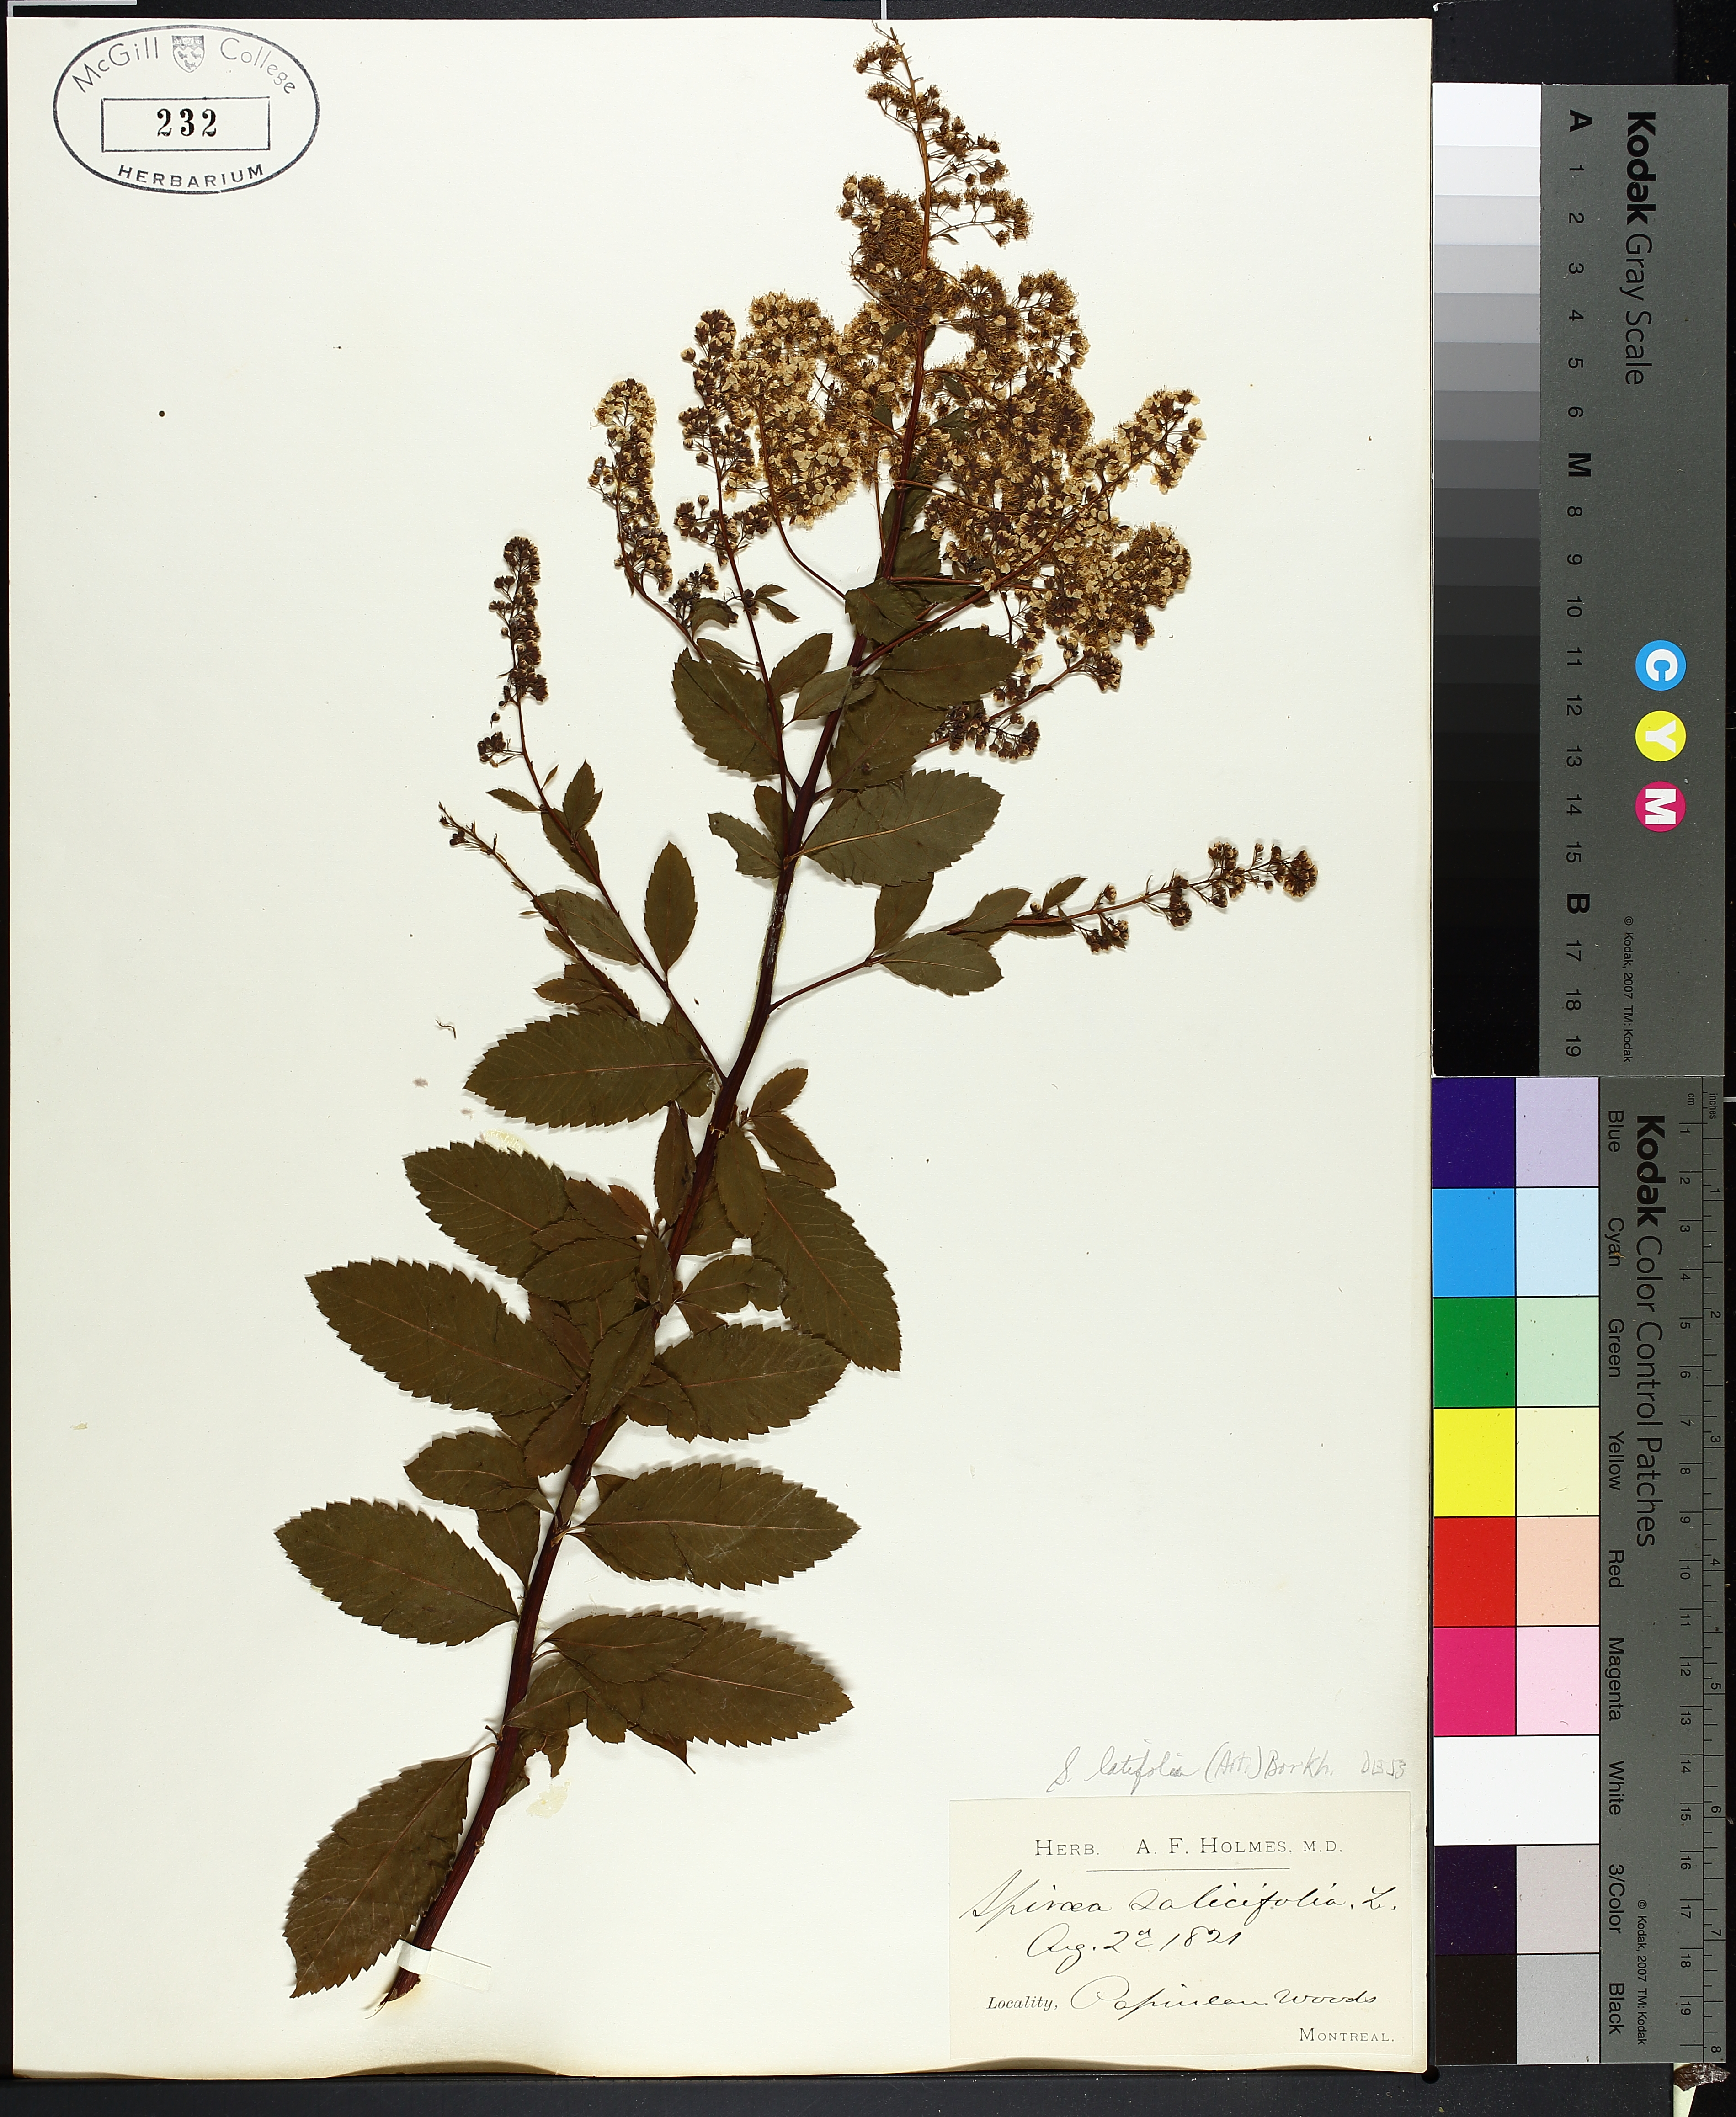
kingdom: Plantae
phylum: Tracheophyta
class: Magnoliopsida
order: Rosales
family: Rosaceae
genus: Spiraea
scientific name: Spiraea alba
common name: Pale bridewort
